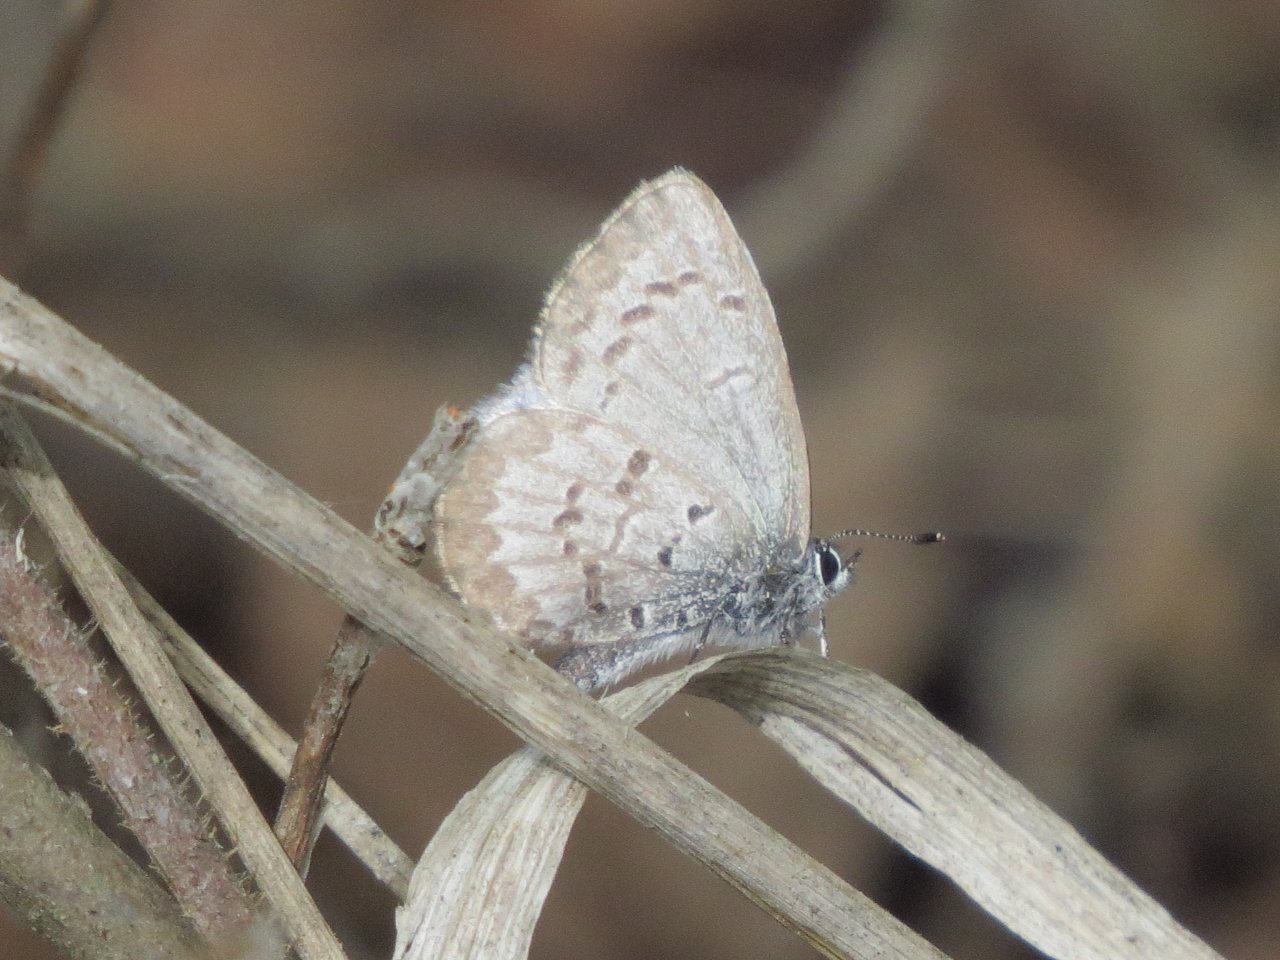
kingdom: Animalia
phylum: Arthropoda
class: Insecta
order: Lepidoptera
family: Lycaenidae
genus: Celastrina
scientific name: Celastrina lucia
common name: Northern Spring Azure
